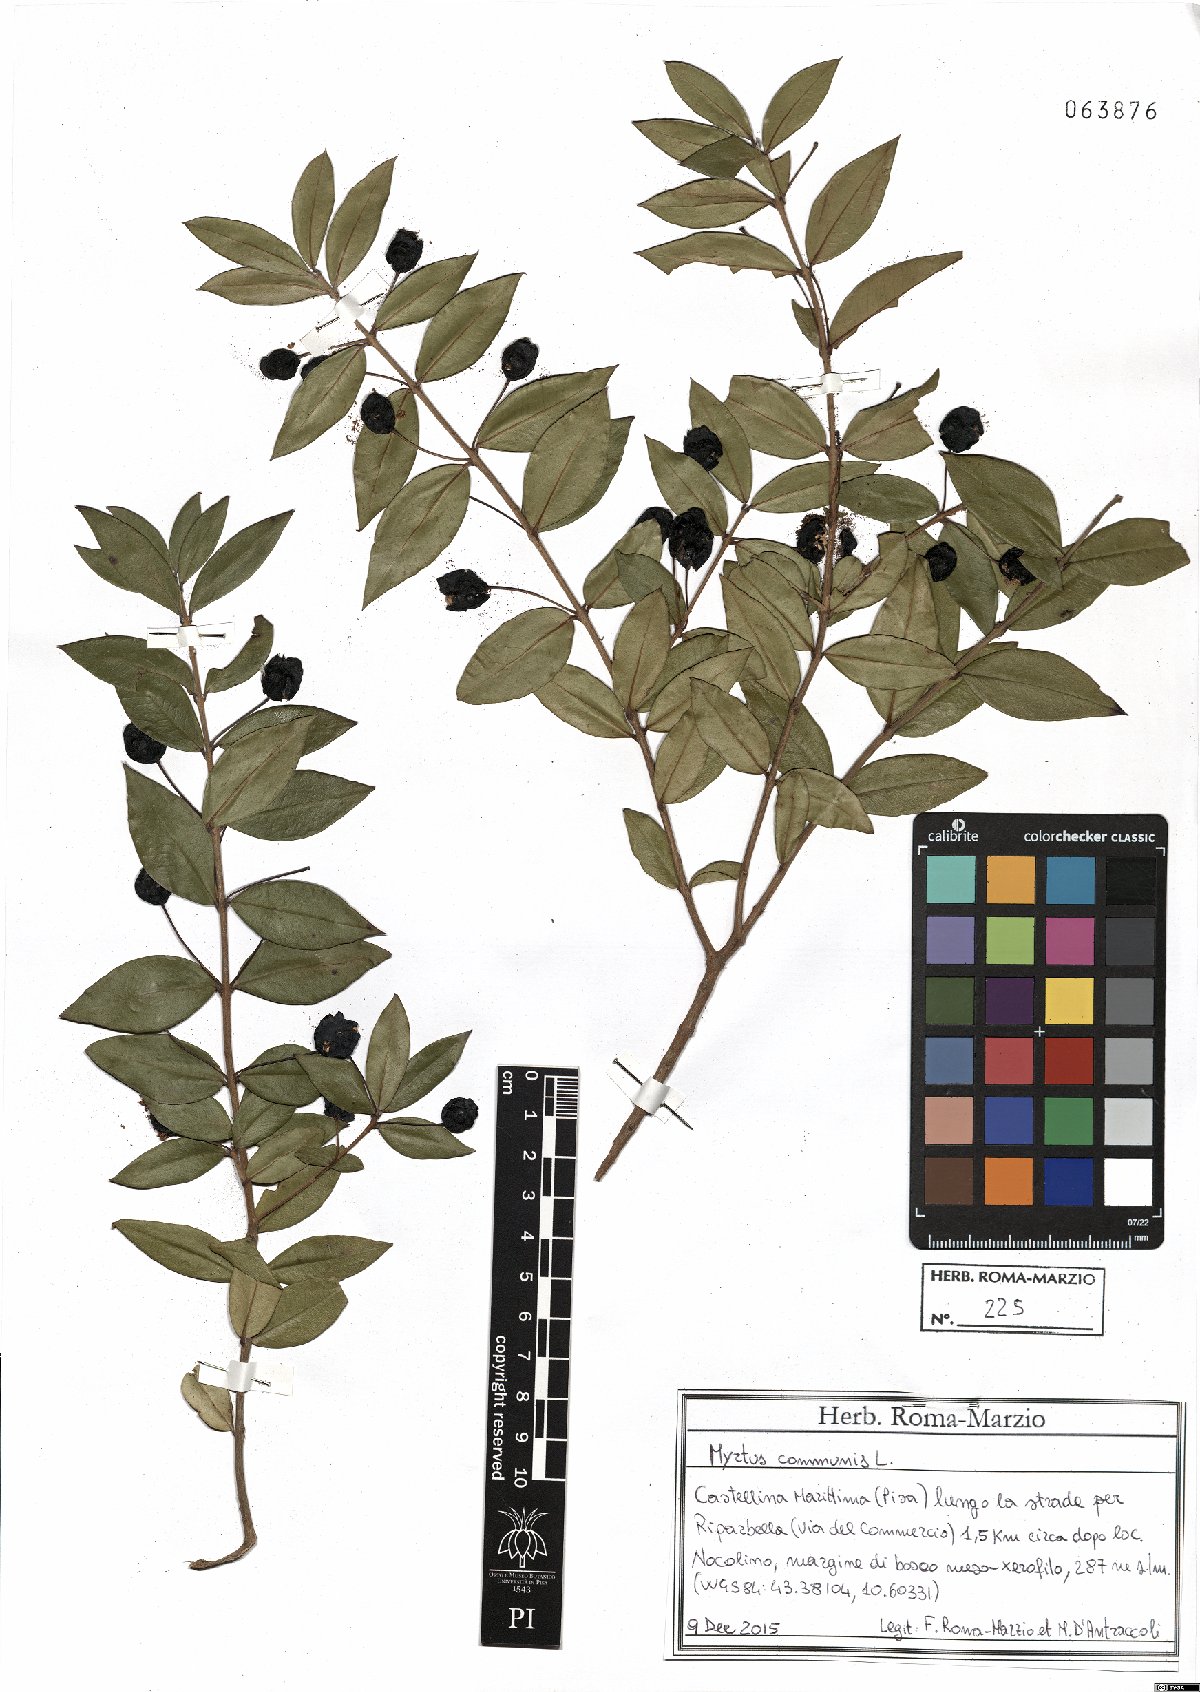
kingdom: Plantae
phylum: Tracheophyta
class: Magnoliopsida
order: Myrtales
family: Myrtaceae
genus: Myrtus
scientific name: Myrtus communis
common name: Myrtle
